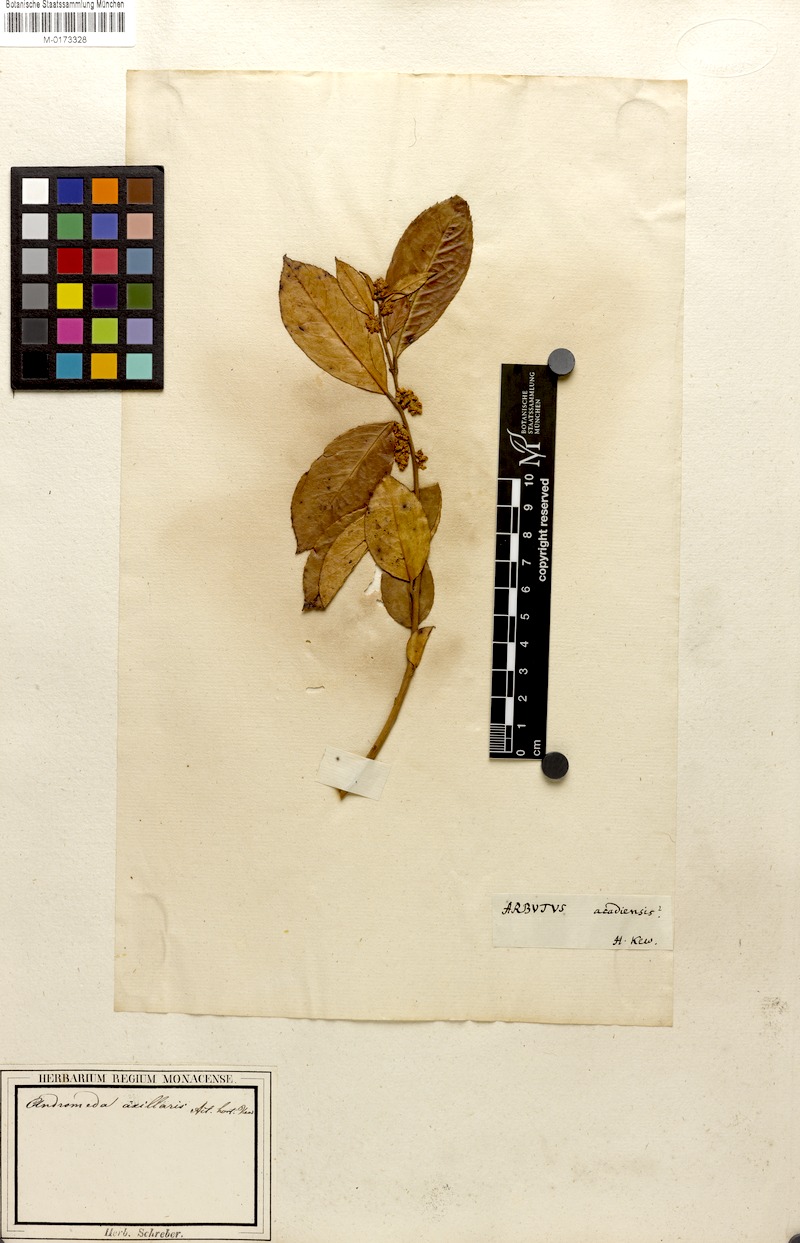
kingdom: Plantae
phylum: Tracheophyta
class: Magnoliopsida
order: Ericales
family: Ericaceae
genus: Leucothoe
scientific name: Leucothoe axillaris
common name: Leucothoe
